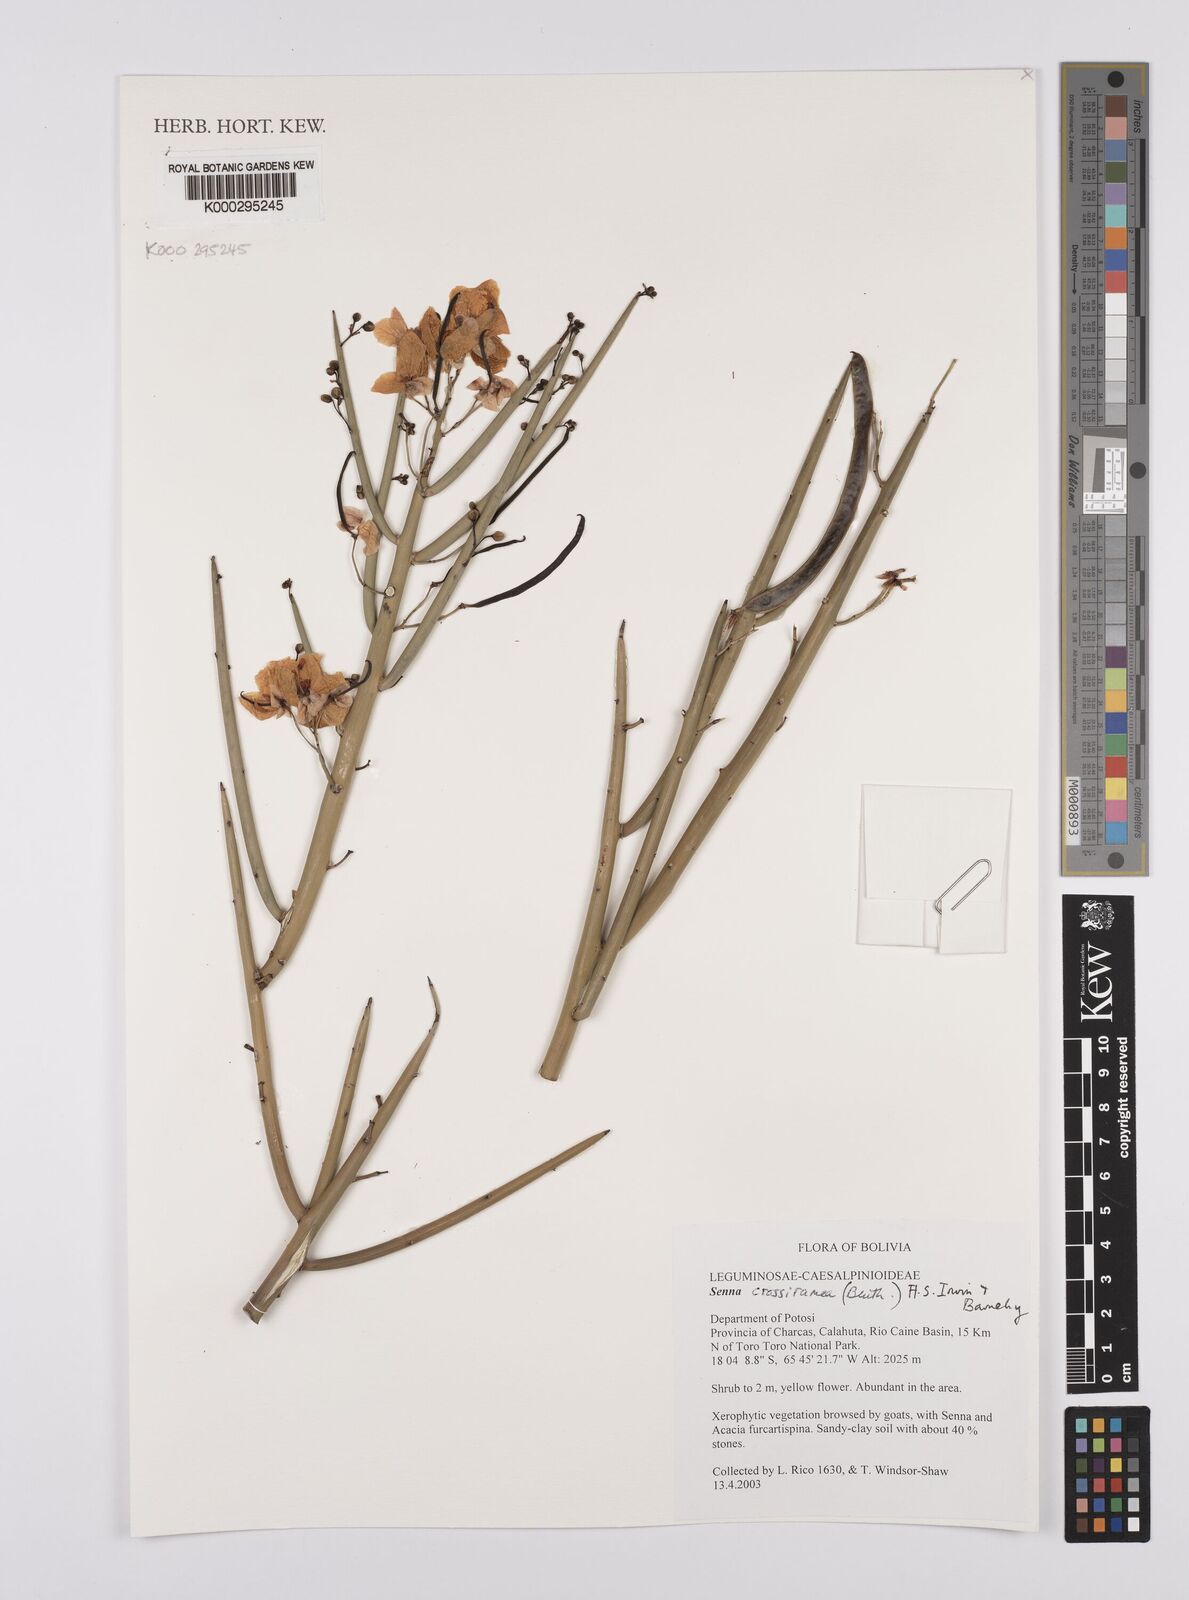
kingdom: Plantae
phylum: Tracheophyta
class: Magnoliopsida
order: Fabales
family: Fabaceae
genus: Senna
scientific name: Senna crassiramea
